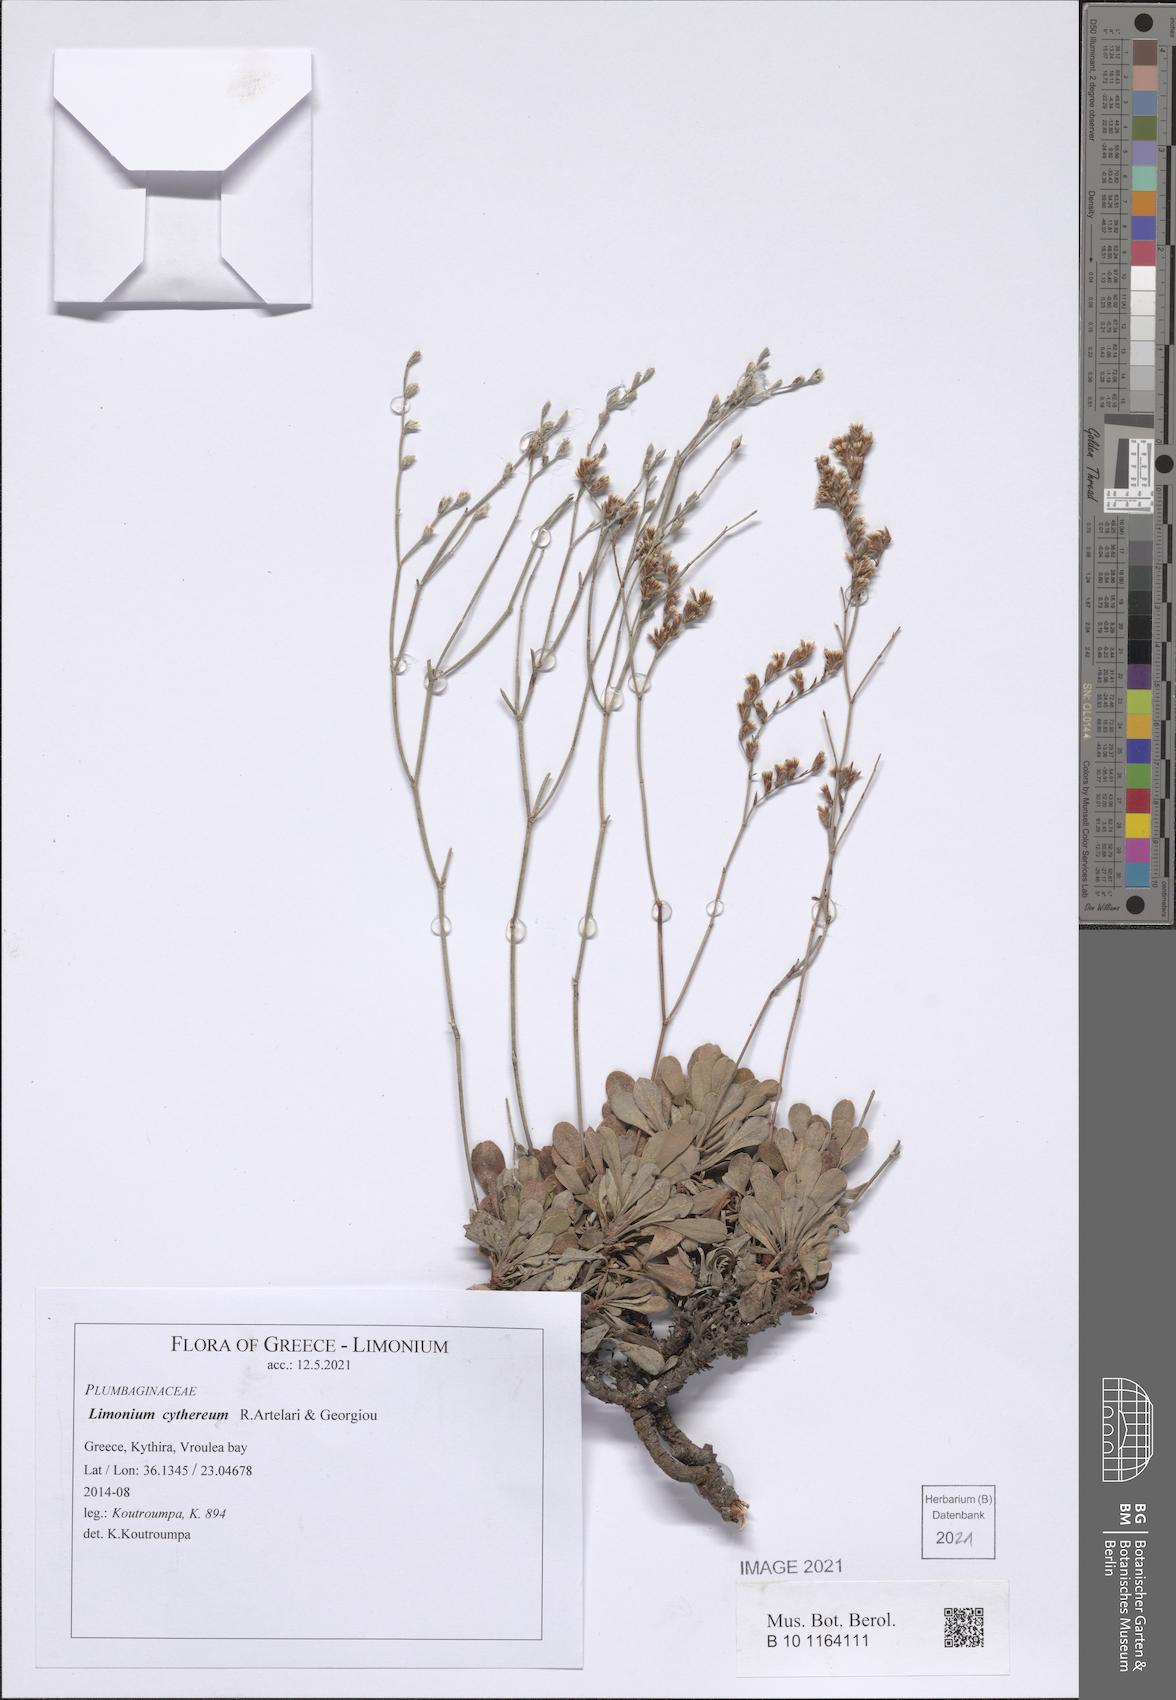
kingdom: Plantae
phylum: Tracheophyta
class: Magnoliopsida
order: Caryophyllales
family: Plumbaginaceae
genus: Limonium
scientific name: Limonium cythereum
